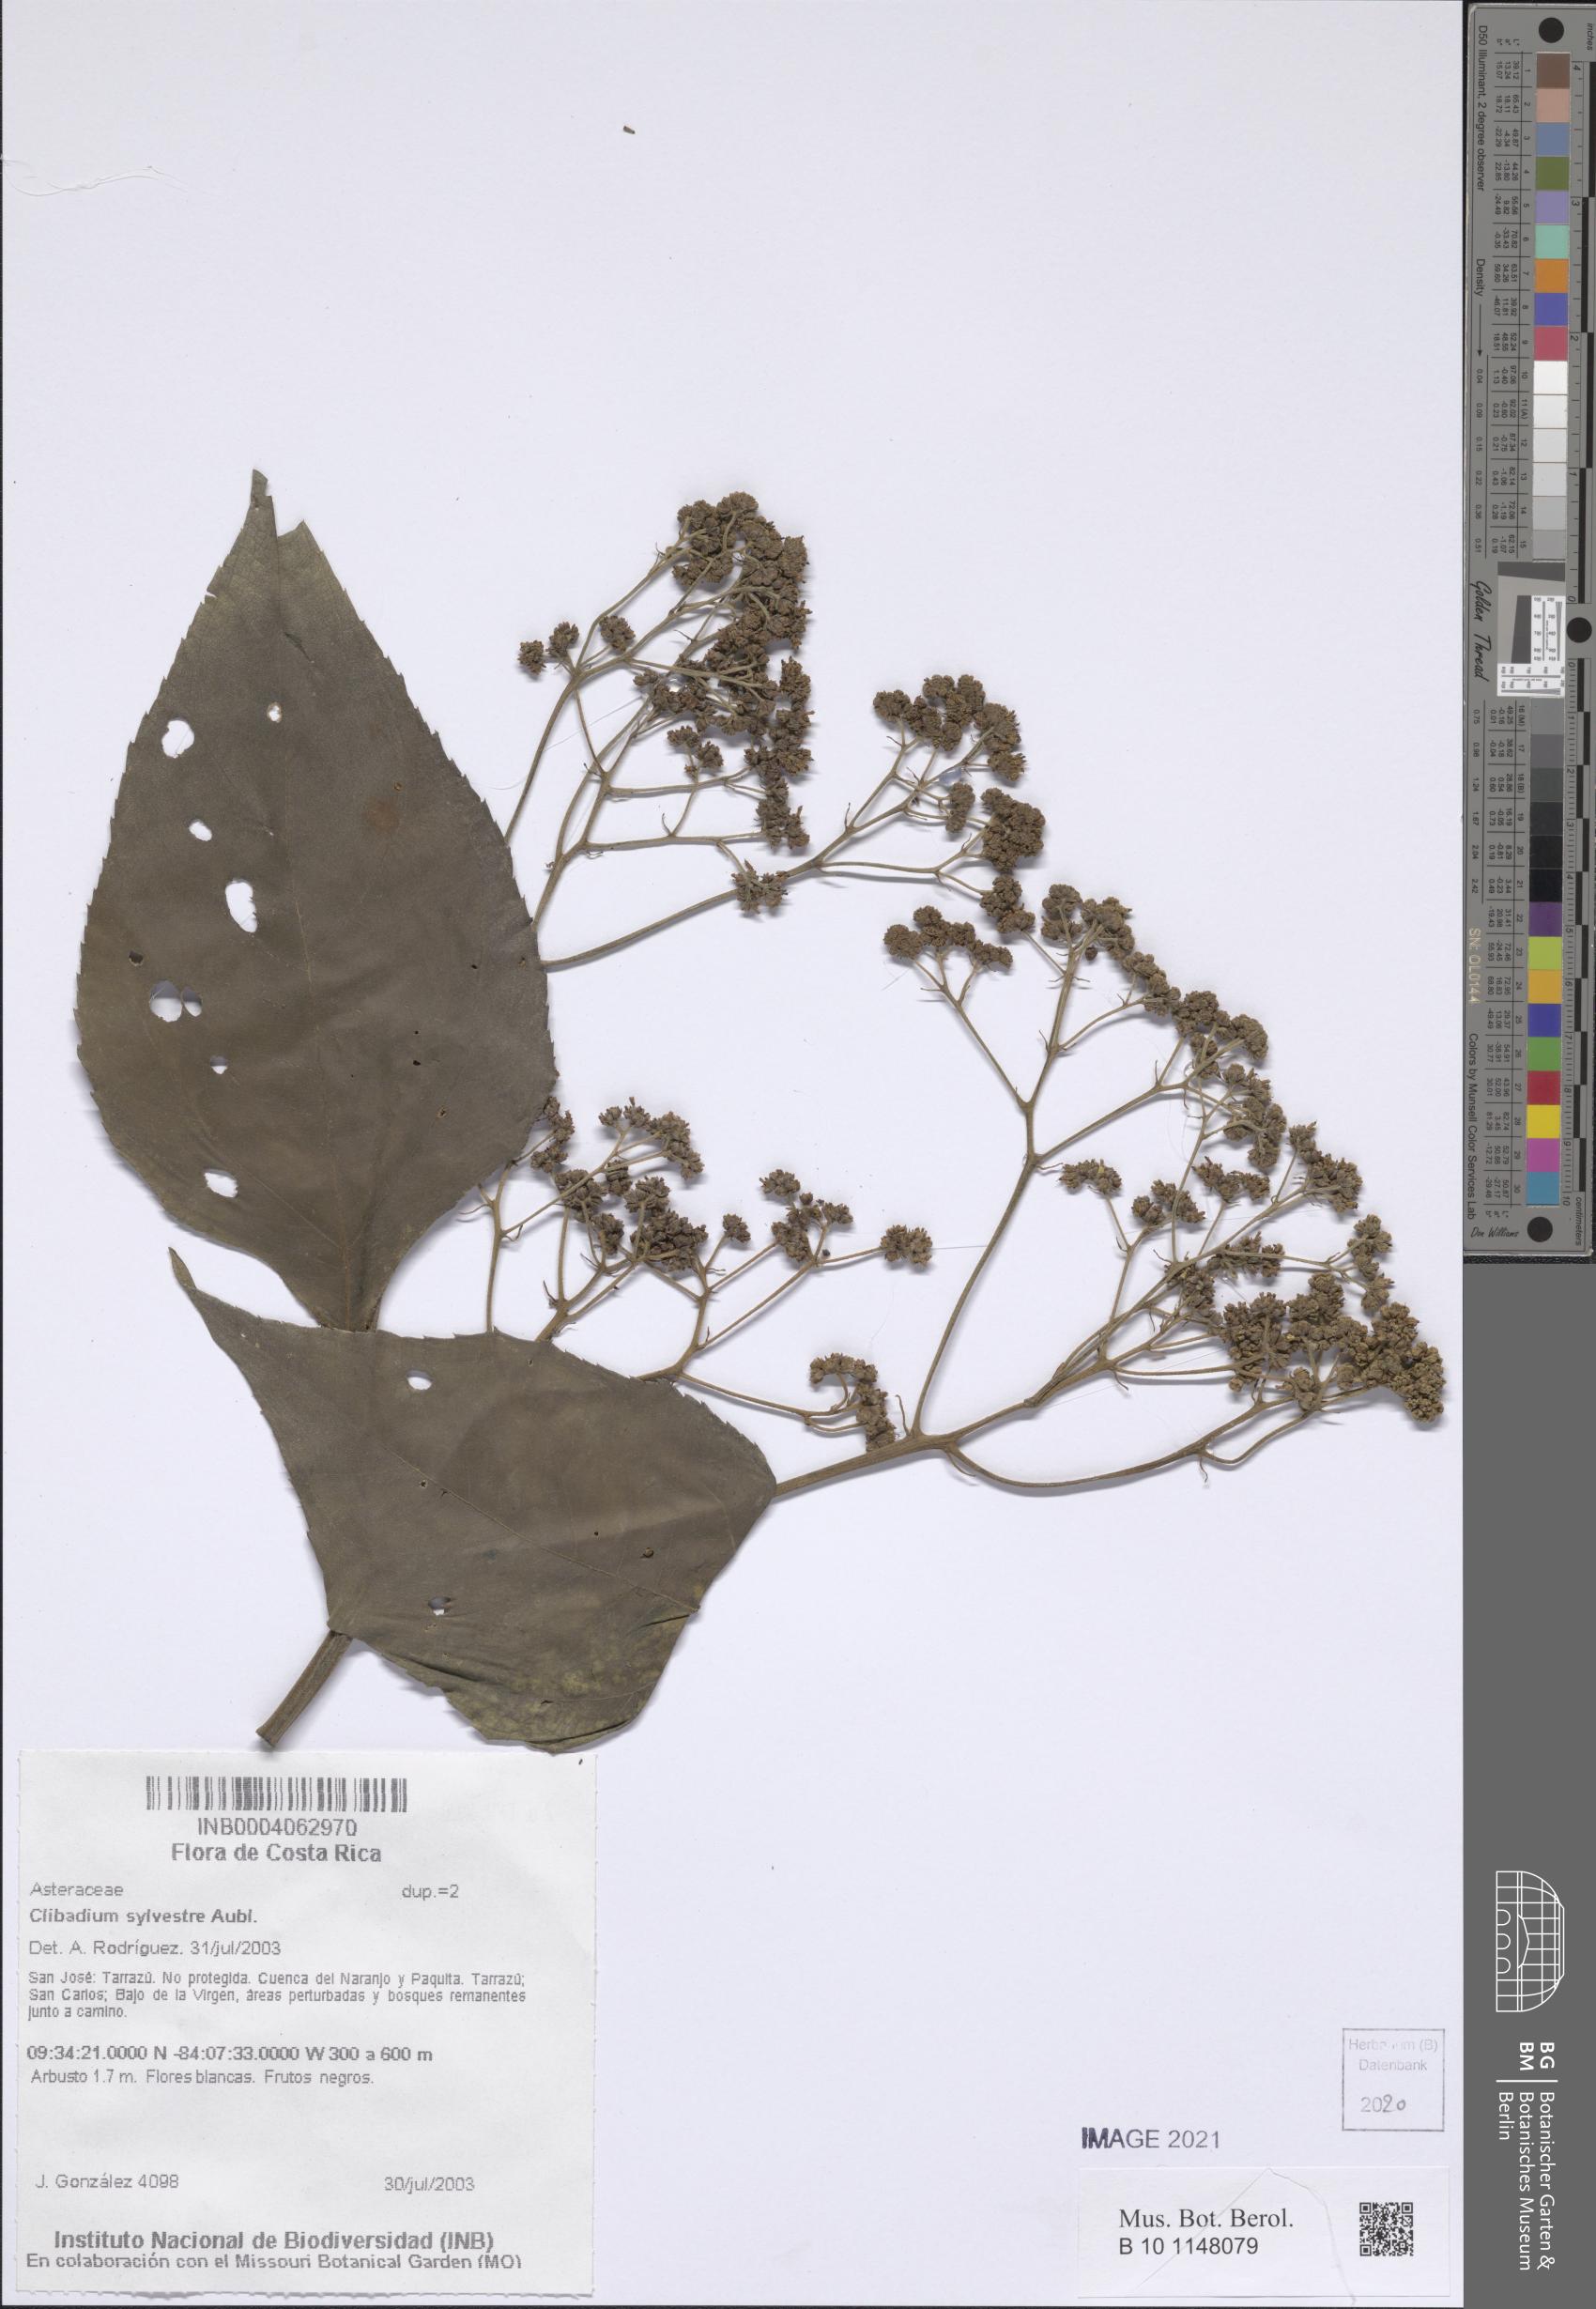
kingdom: Plantae
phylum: Tracheophyta
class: Magnoliopsida
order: Asterales
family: Asteraceae
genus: Clibadium
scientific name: Clibadium sylvestre
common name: Barbasco
